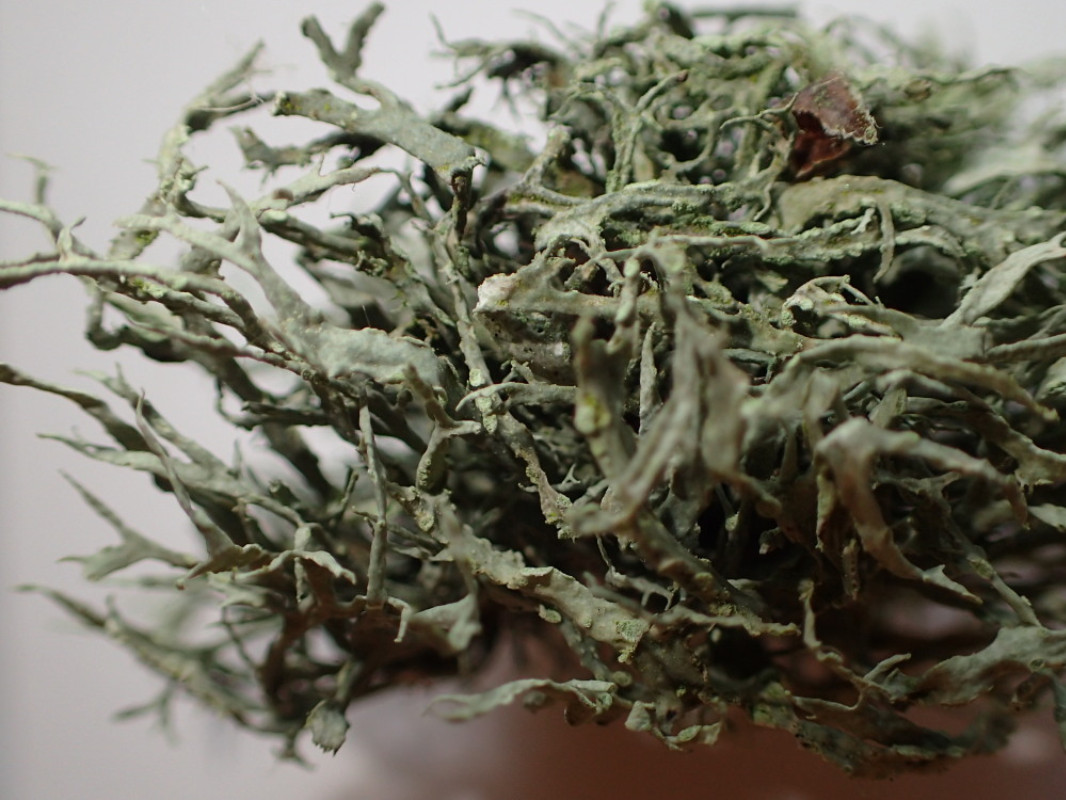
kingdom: Fungi
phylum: Ascomycota
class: Lecanoromycetes
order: Lecanorales
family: Ramalinaceae
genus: Ramalina
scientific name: Ramalina farinacea
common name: melet grenlav
